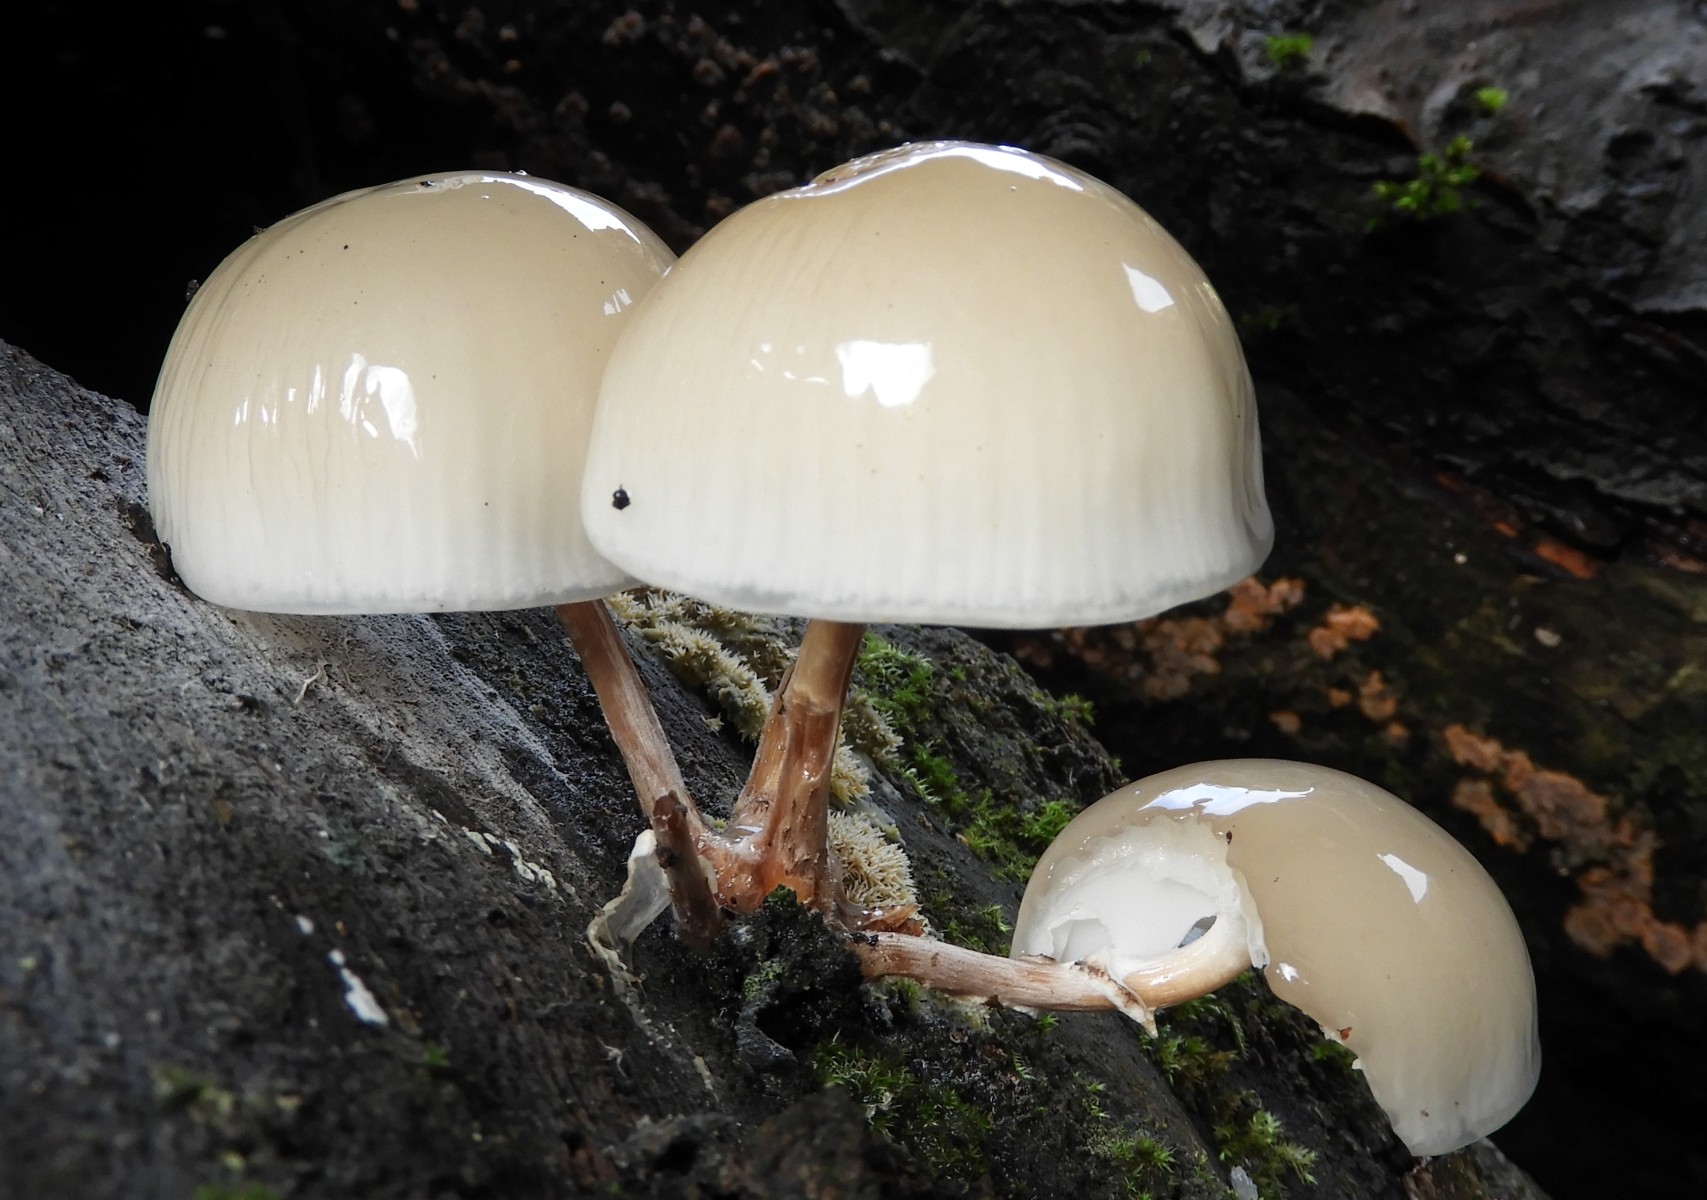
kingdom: Fungi
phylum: Basidiomycota
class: Agaricomycetes
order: Agaricales
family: Physalacriaceae
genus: Mucidula
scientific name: Mucidula mucida
